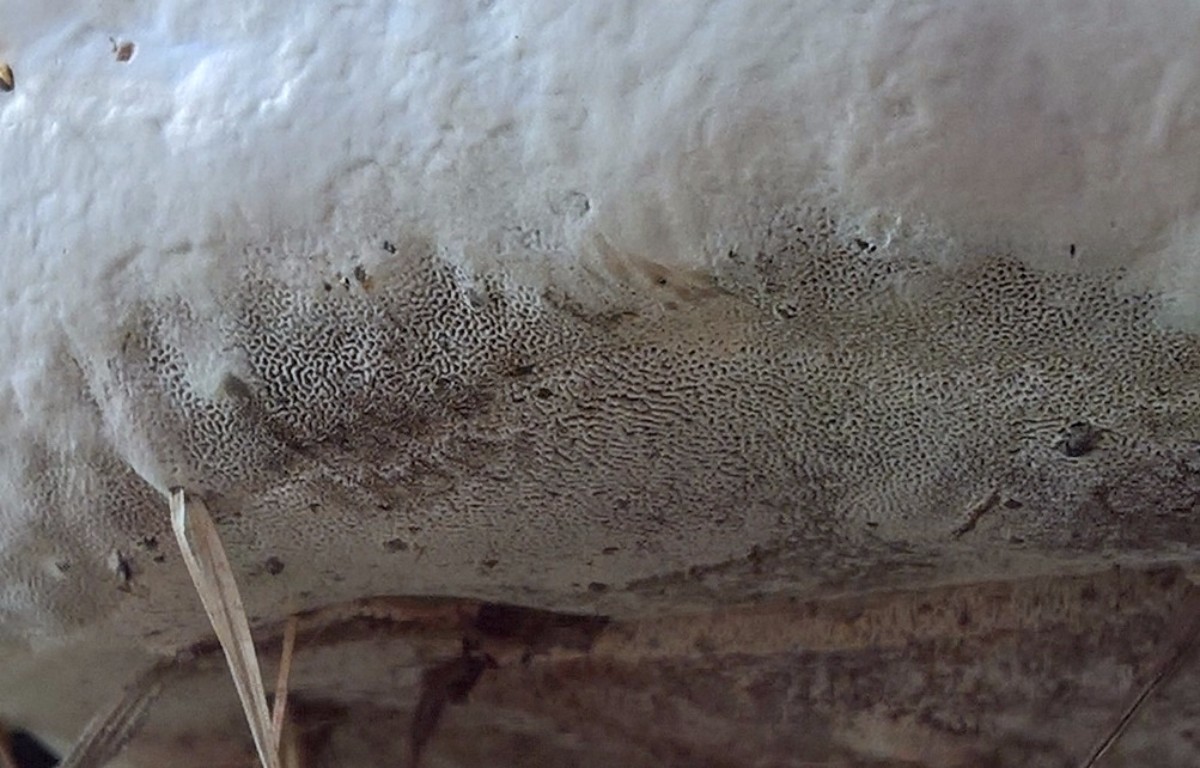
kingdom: Fungi
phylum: Basidiomycota
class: Agaricomycetes
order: Polyporales
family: Polyporaceae
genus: Ganoderma
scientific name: Ganoderma adspersum
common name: grov lakporesvamp
